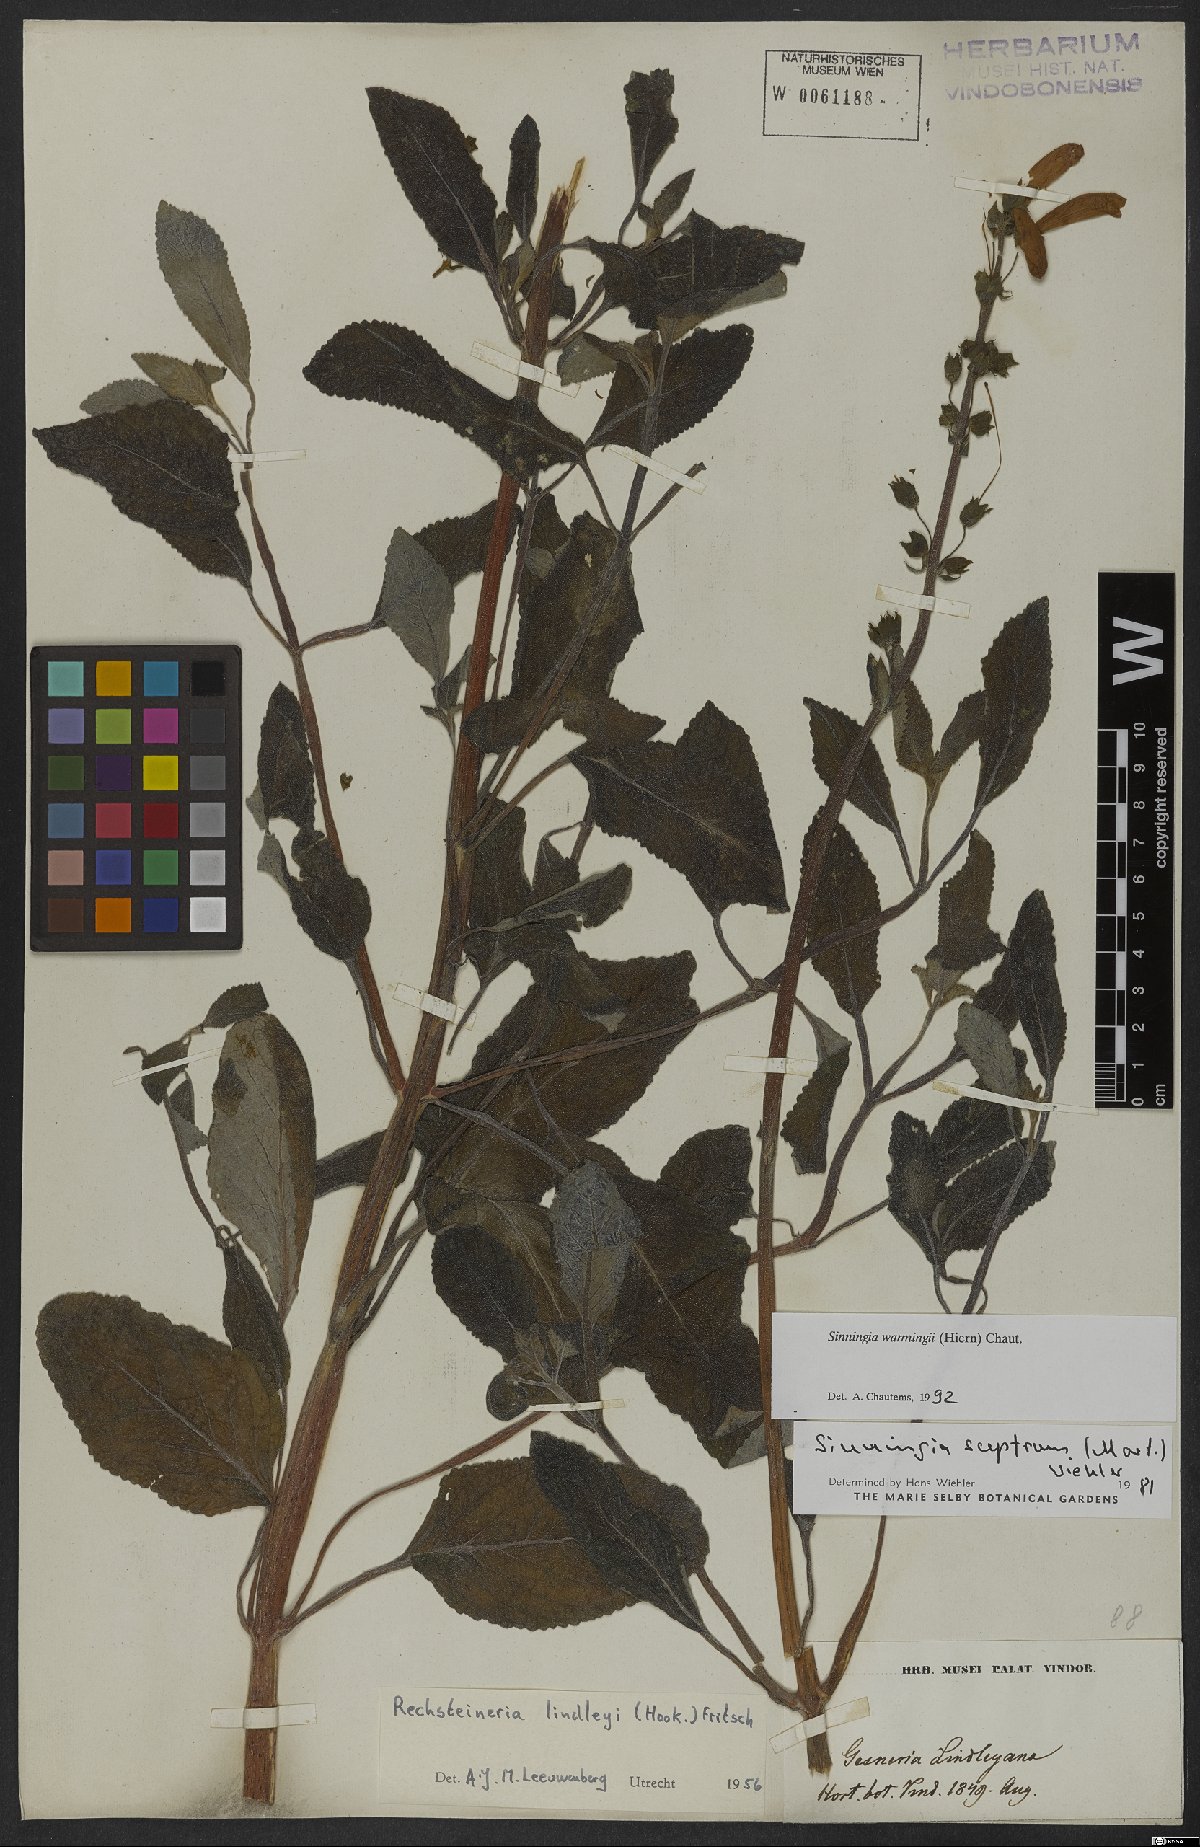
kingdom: Plantae
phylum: Tracheophyta
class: Magnoliopsida
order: Lamiales
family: Gesneriaceae
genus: Sinningia
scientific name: Sinningia warmingii
